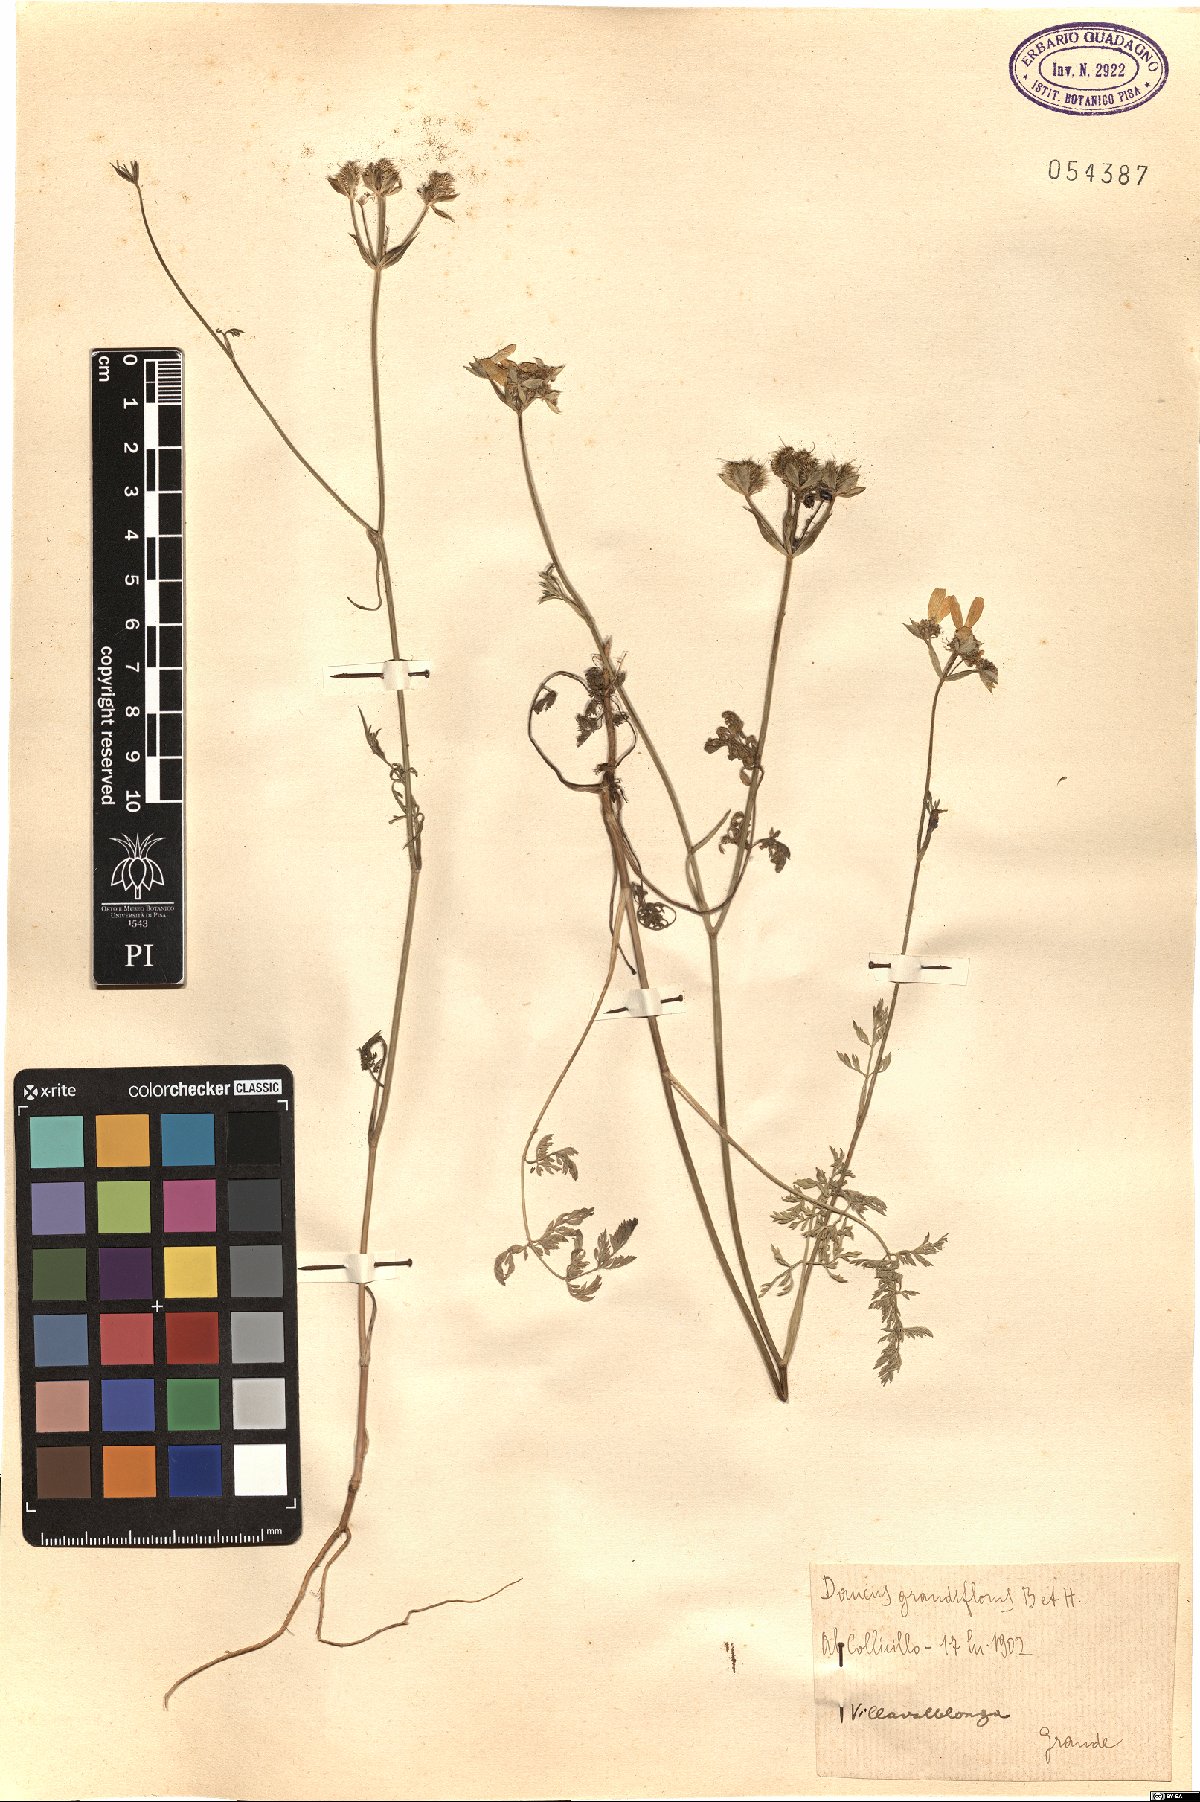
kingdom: Plantae
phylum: Tracheophyta
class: Magnoliopsida
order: Apiales
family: Apiaceae
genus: Orlaya
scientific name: Orlaya grandiflora
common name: White lace flower
